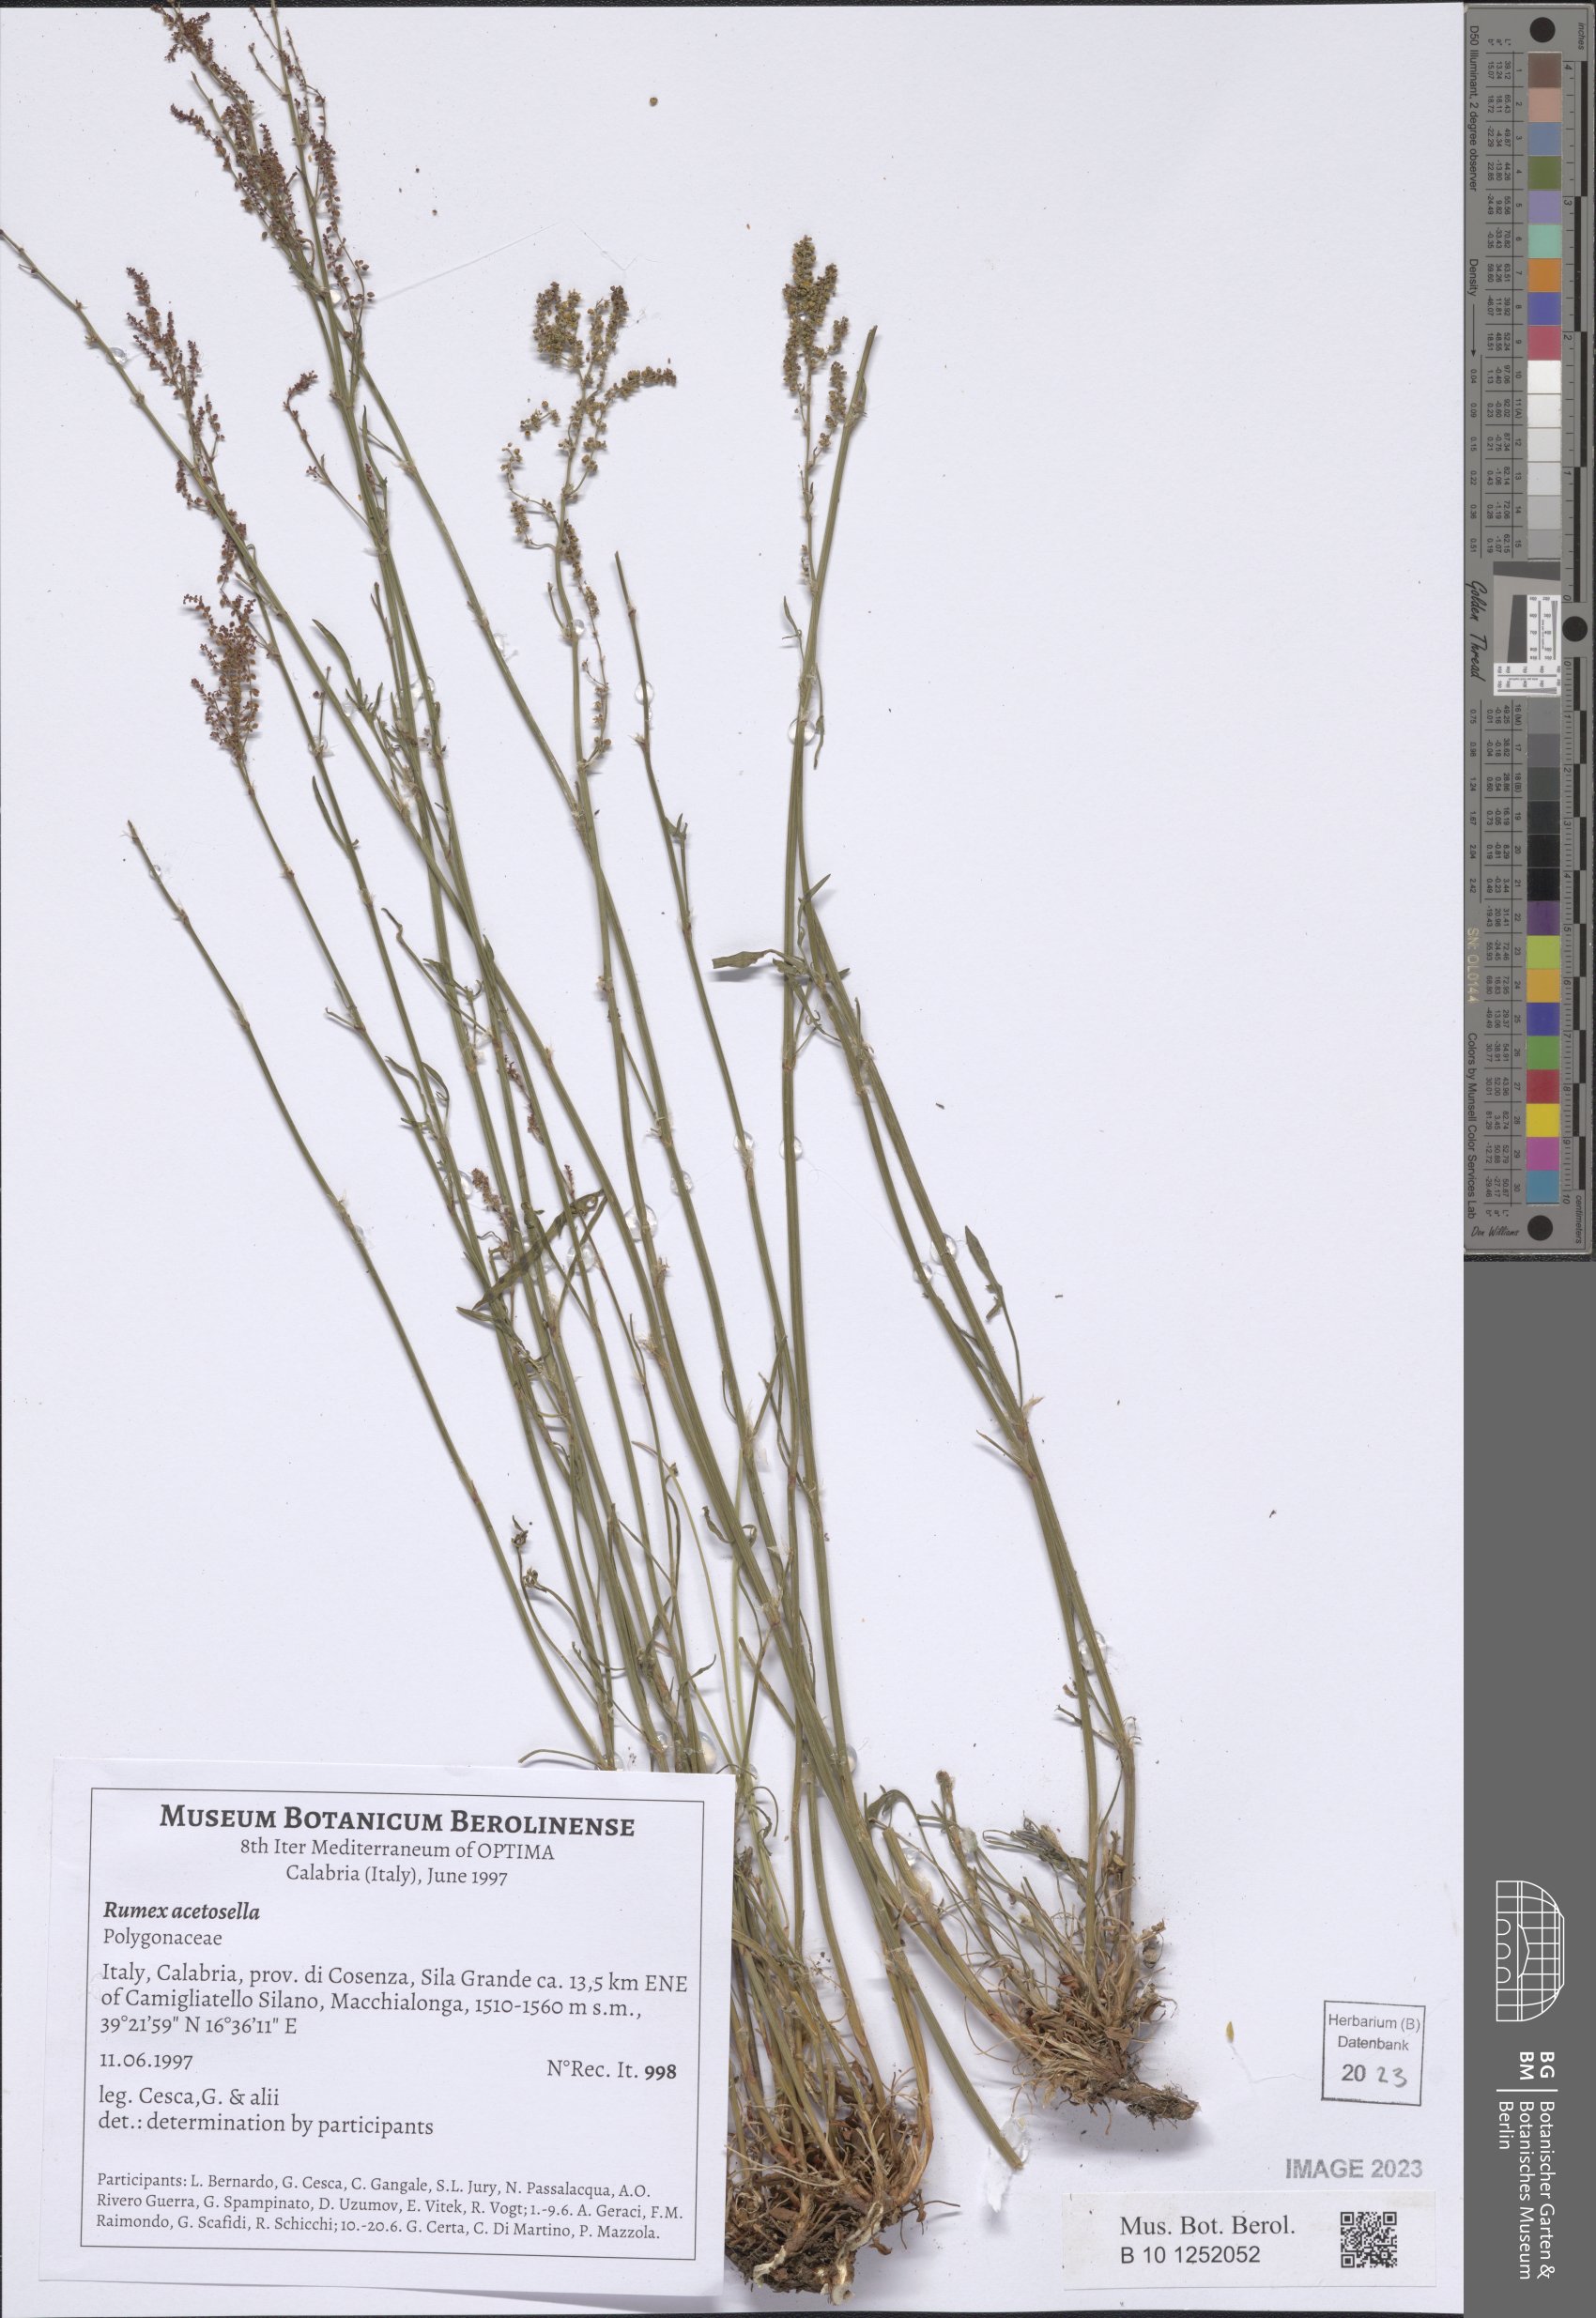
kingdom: Plantae
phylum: Tracheophyta
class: Magnoliopsida
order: Caryophyllales
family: Polygonaceae
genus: Rumex
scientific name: Rumex acetosella
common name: Common sheep sorrel
